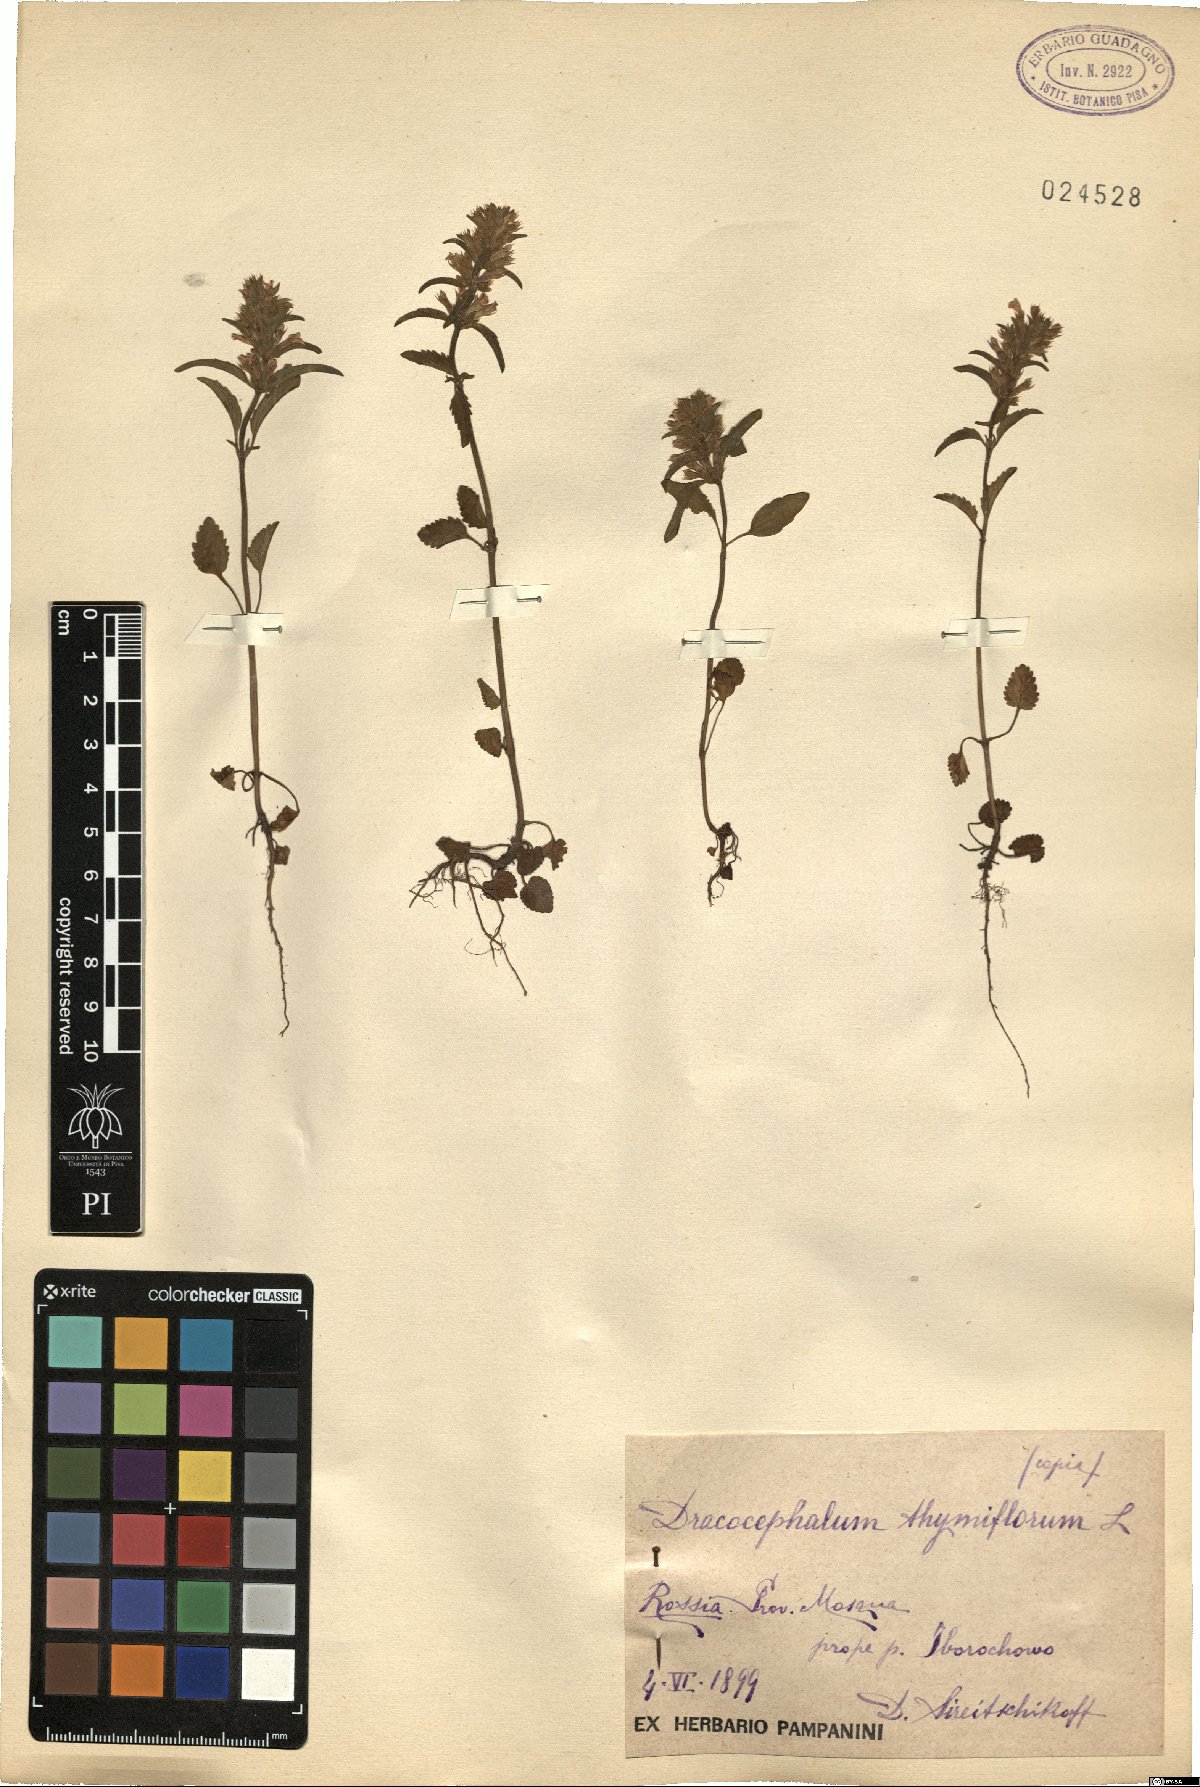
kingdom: Plantae
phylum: Tracheophyta
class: Magnoliopsida
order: Lamiales
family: Lamiaceae
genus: Dracocephalum
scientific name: Dracocephalum thymiflorum
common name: Thymeleaf dragonhead
